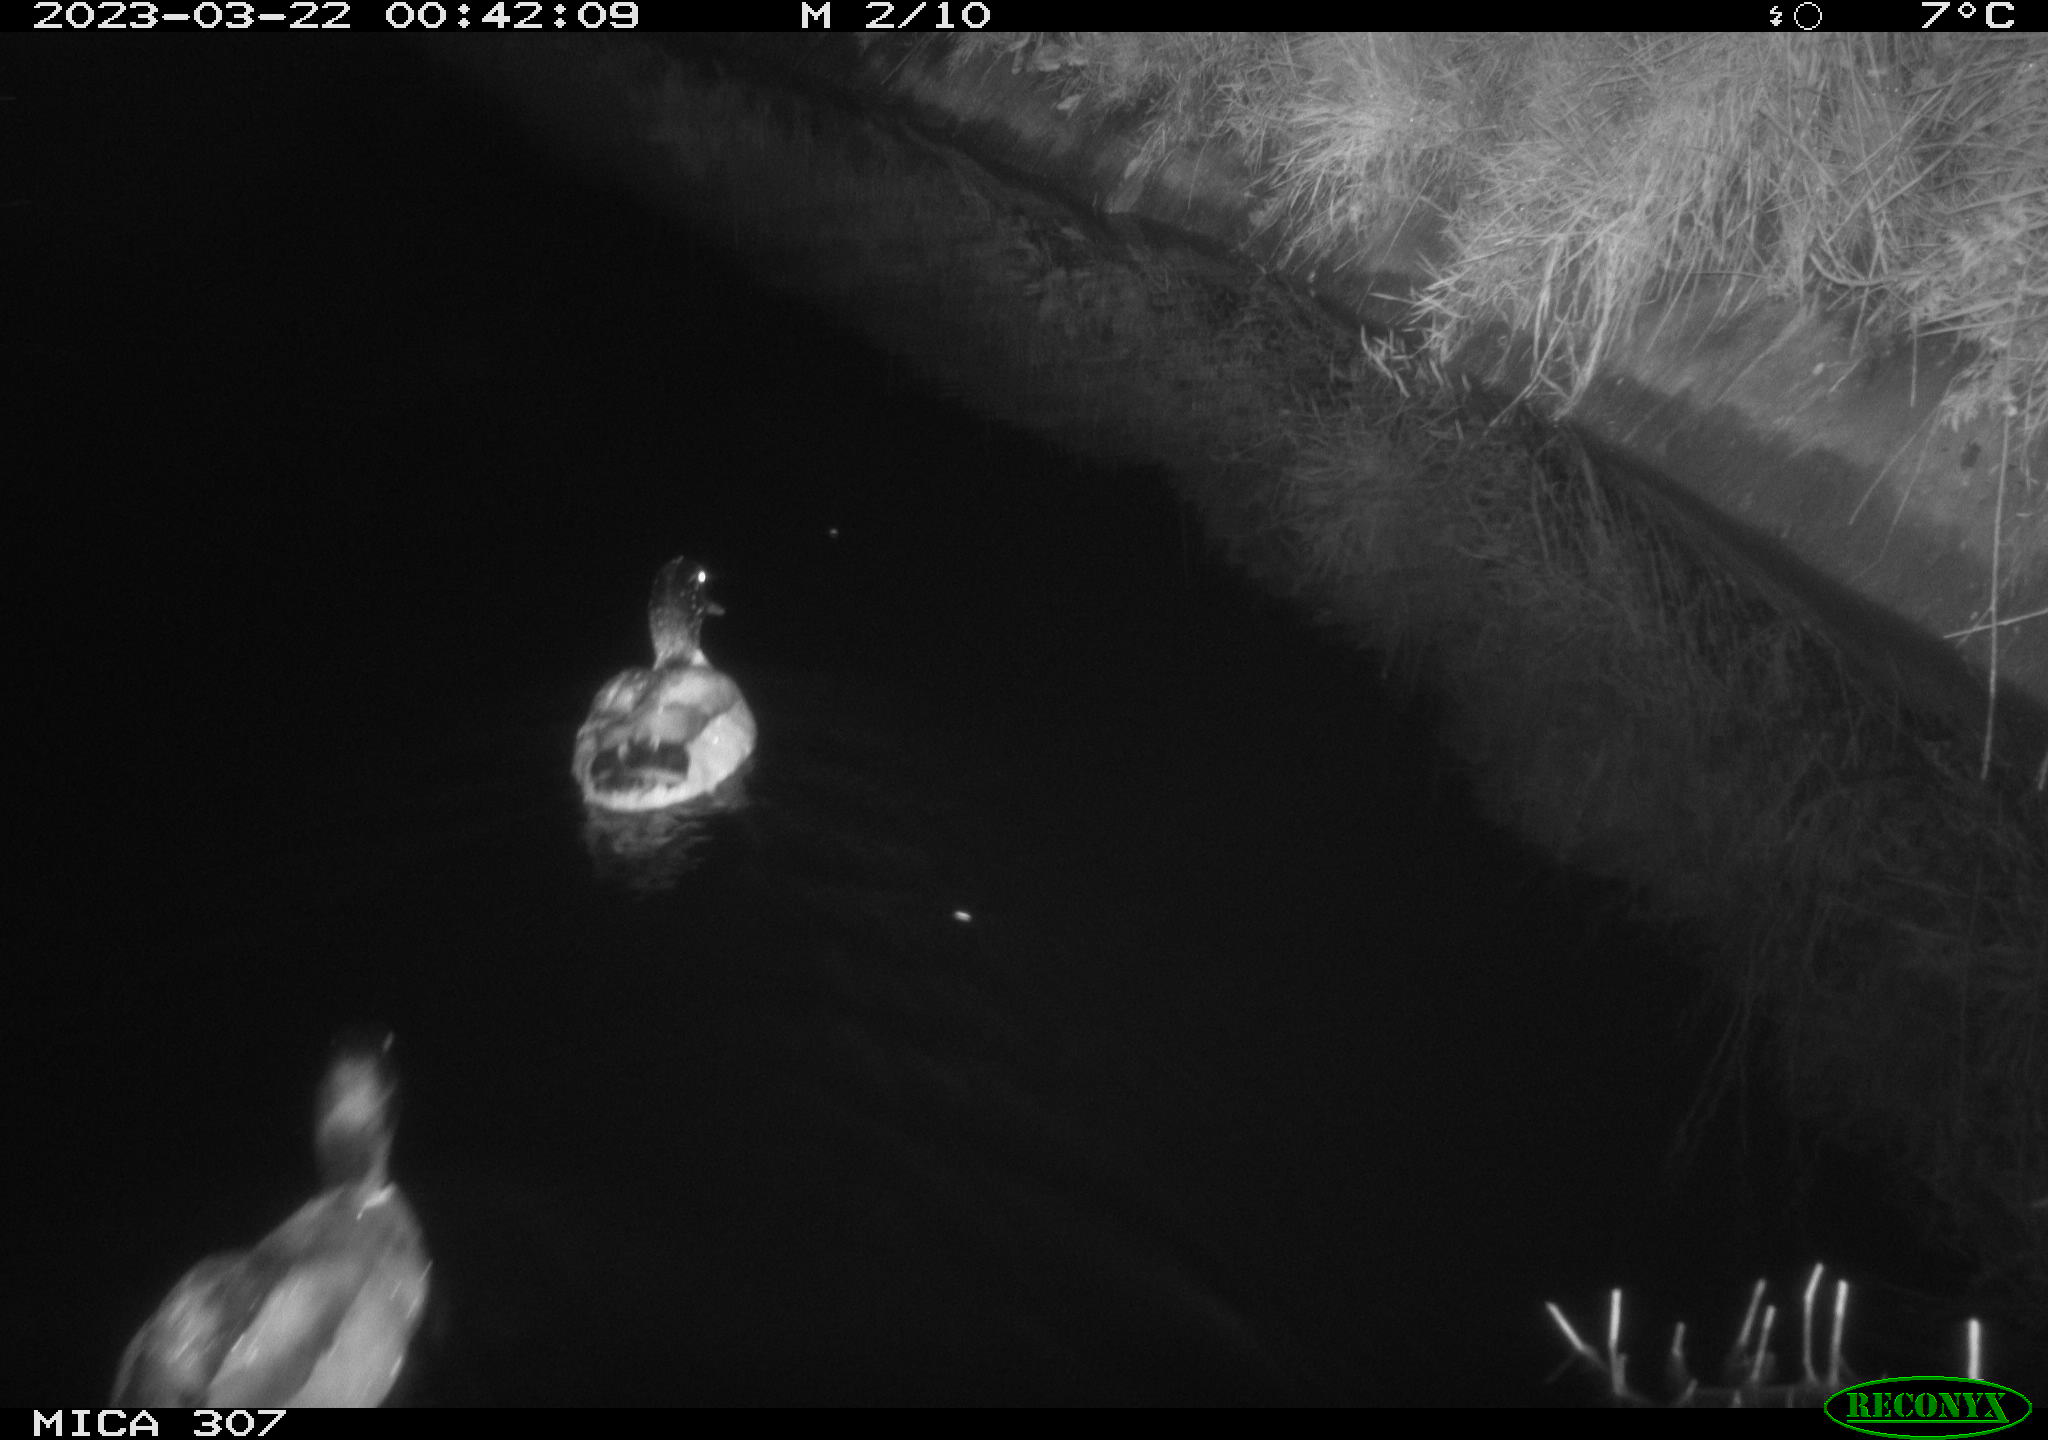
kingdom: Animalia
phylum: Chordata
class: Aves
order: Anseriformes
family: Anatidae
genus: Anas
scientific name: Anas
